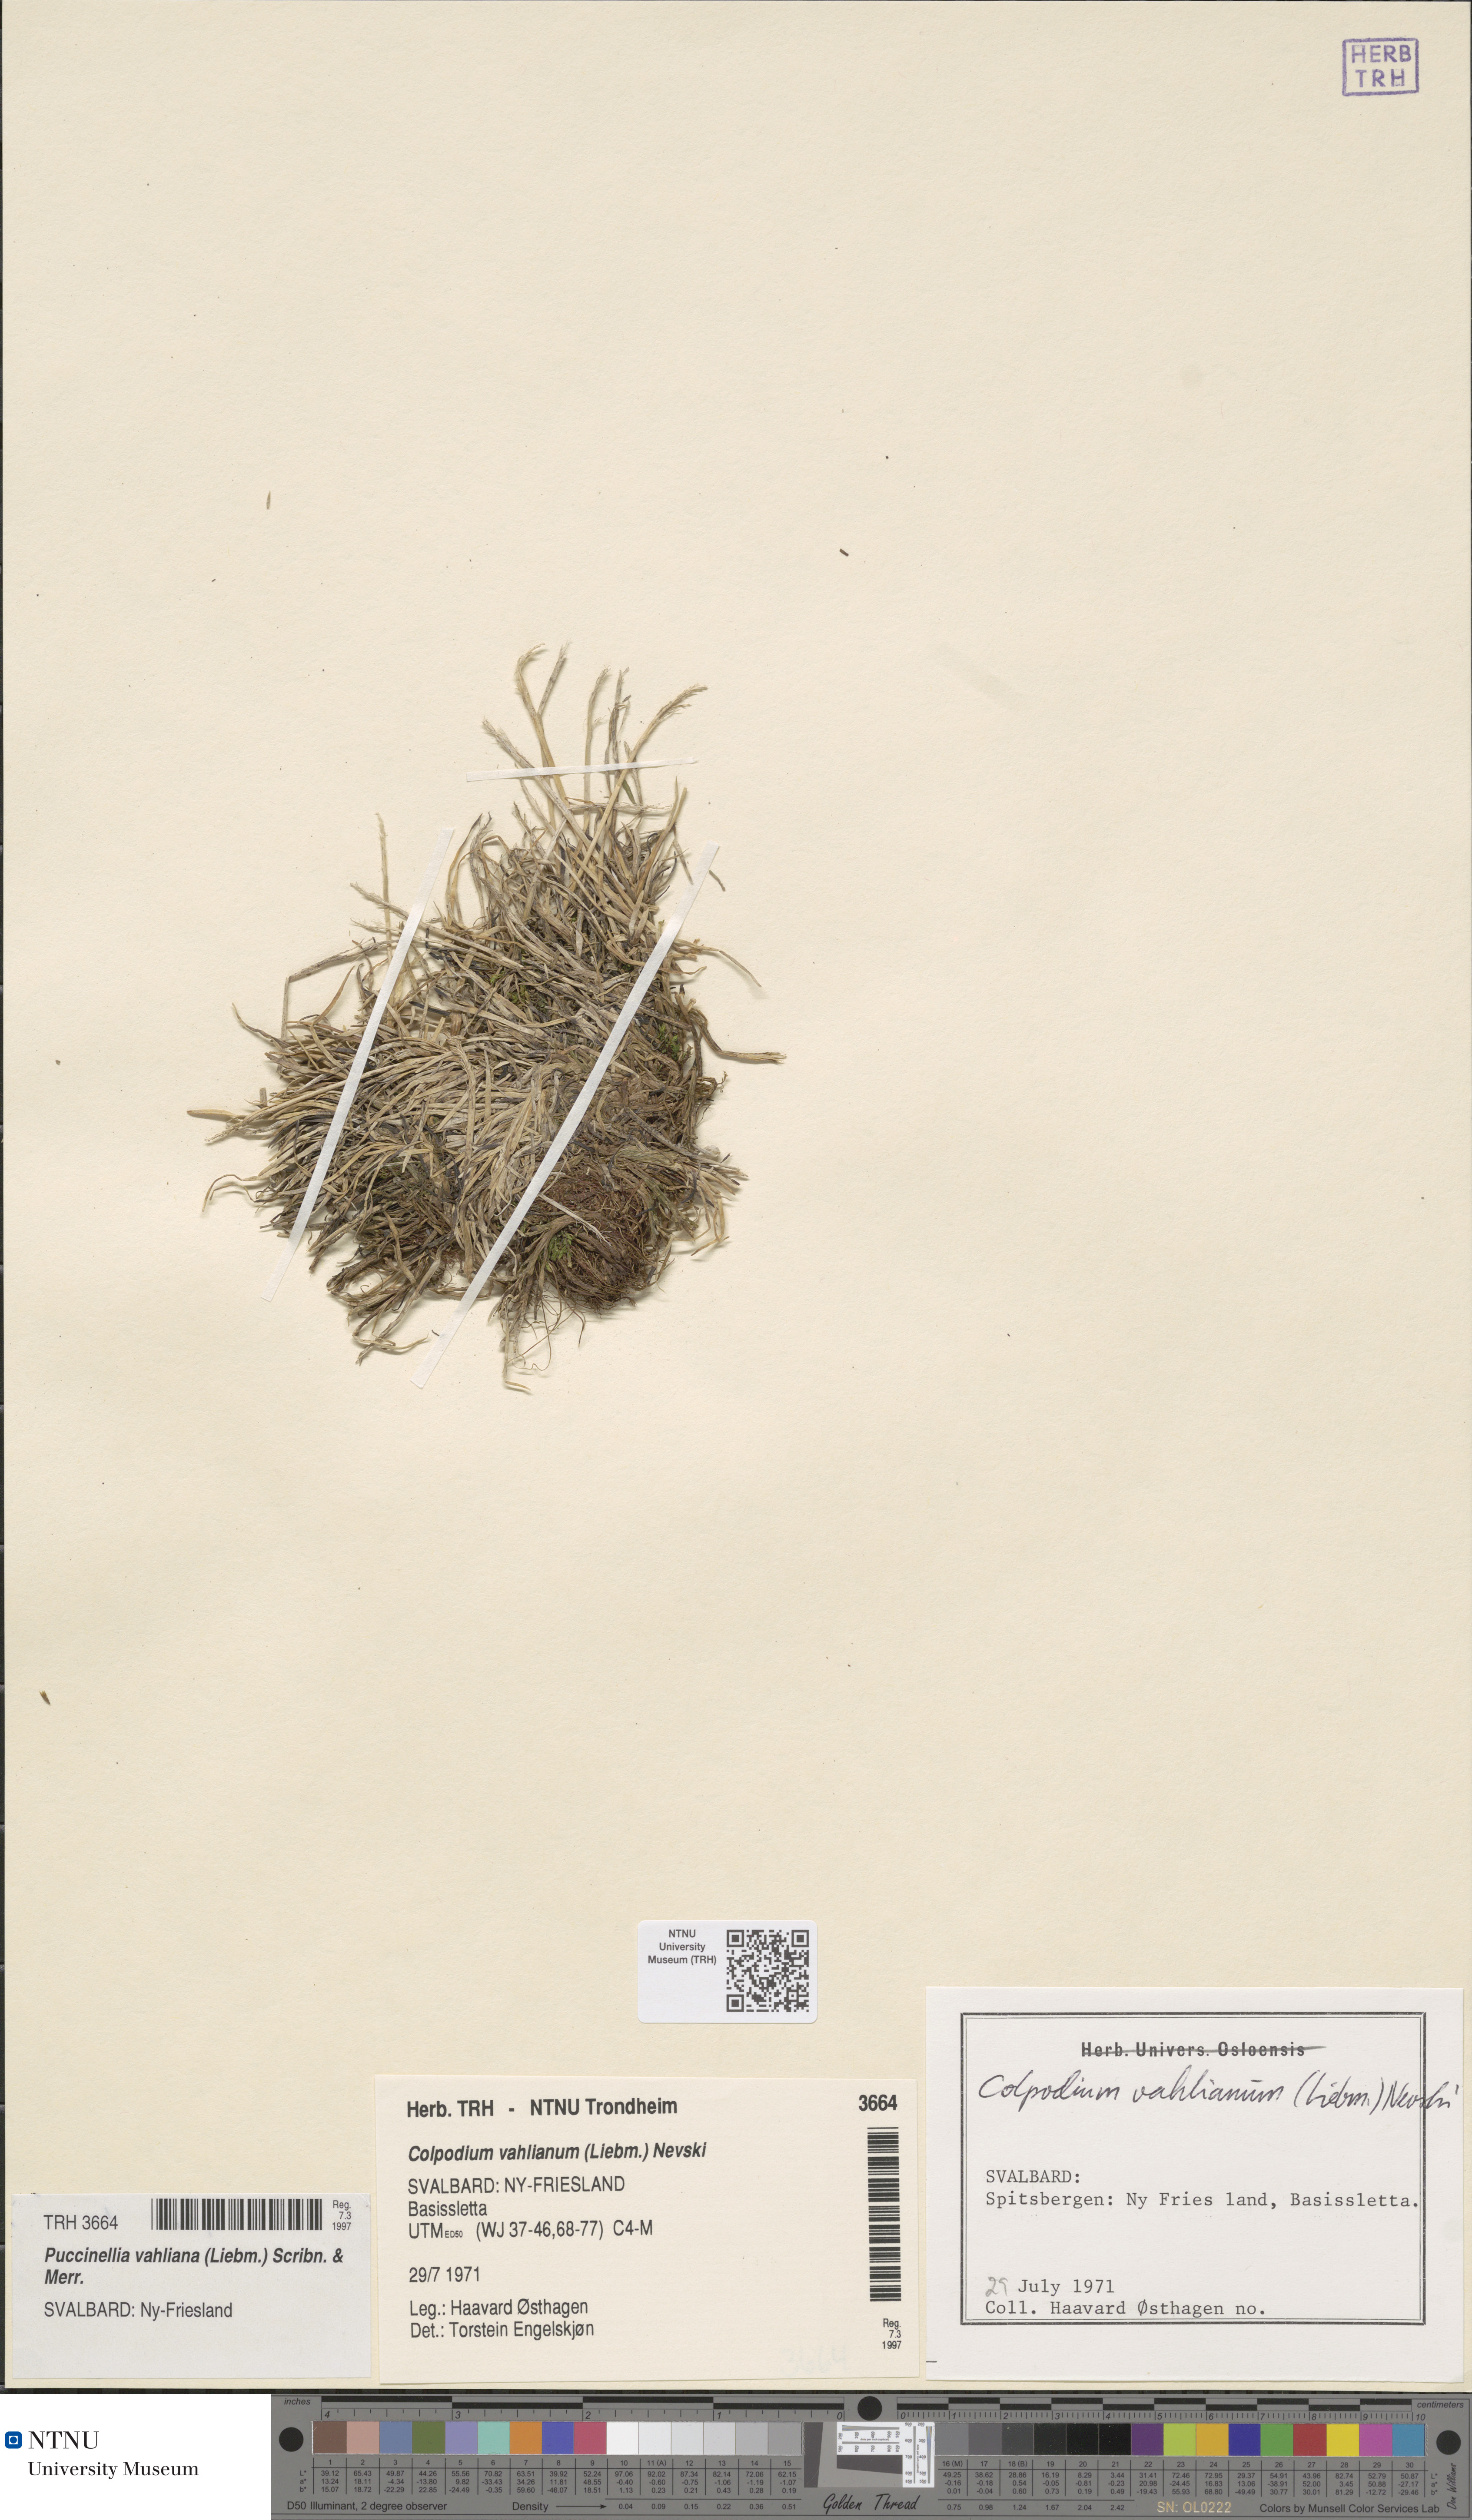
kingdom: Plantae
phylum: Tracheophyta
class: Liliopsida
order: Poales
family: Poaceae
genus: Puccinellia
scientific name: Puccinellia vahliana
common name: Vahl's alkaligrass
